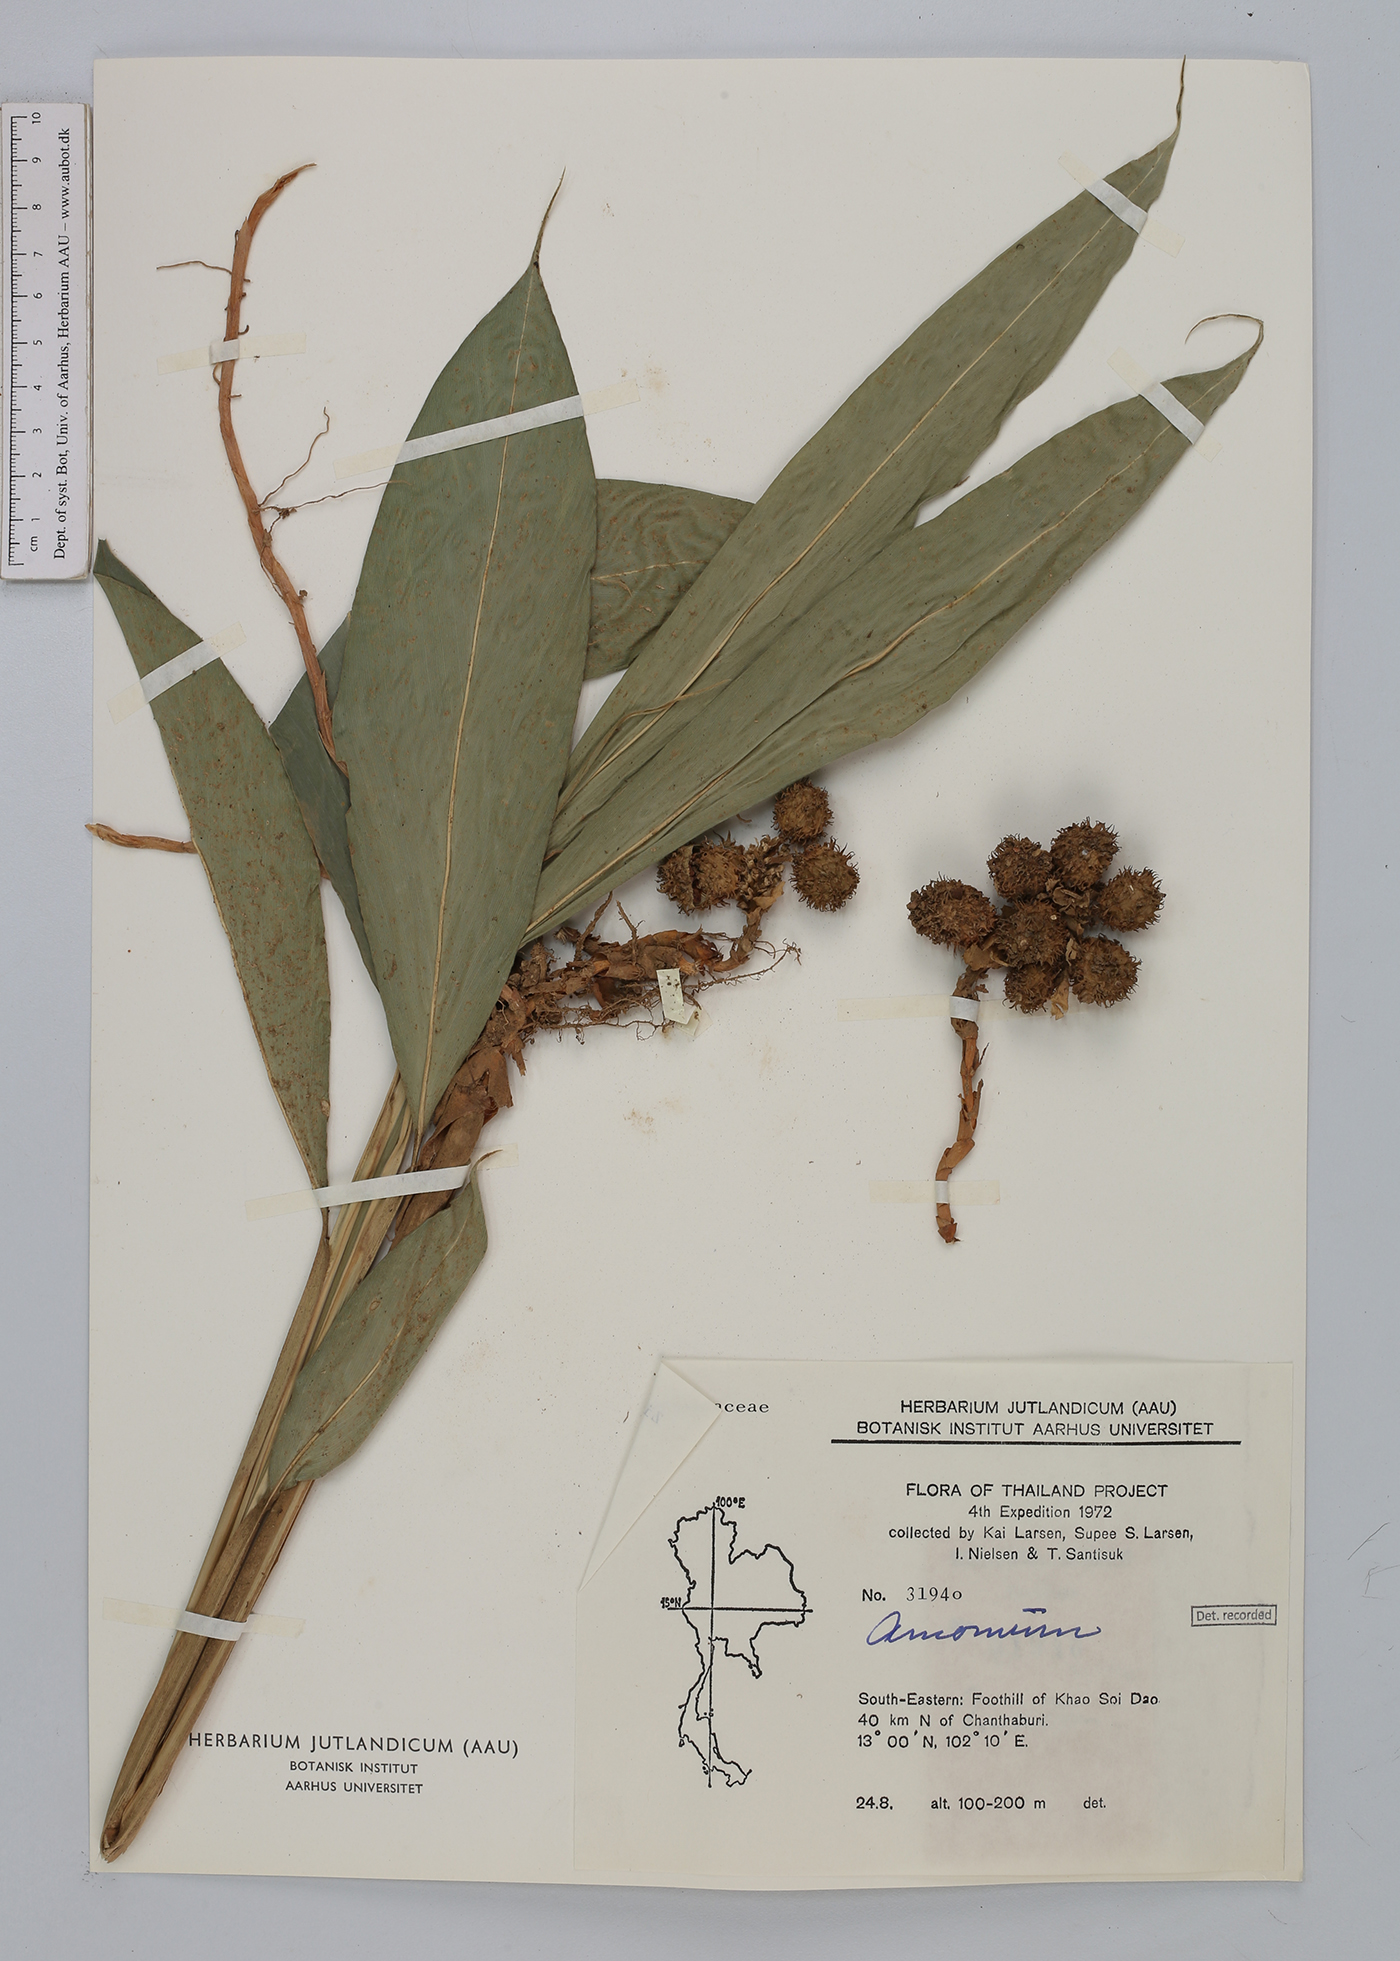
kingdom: Plantae
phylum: Tracheophyta
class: Liliopsida
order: Zingiberales
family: Zingiberaceae
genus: Amomum
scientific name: Amomum
